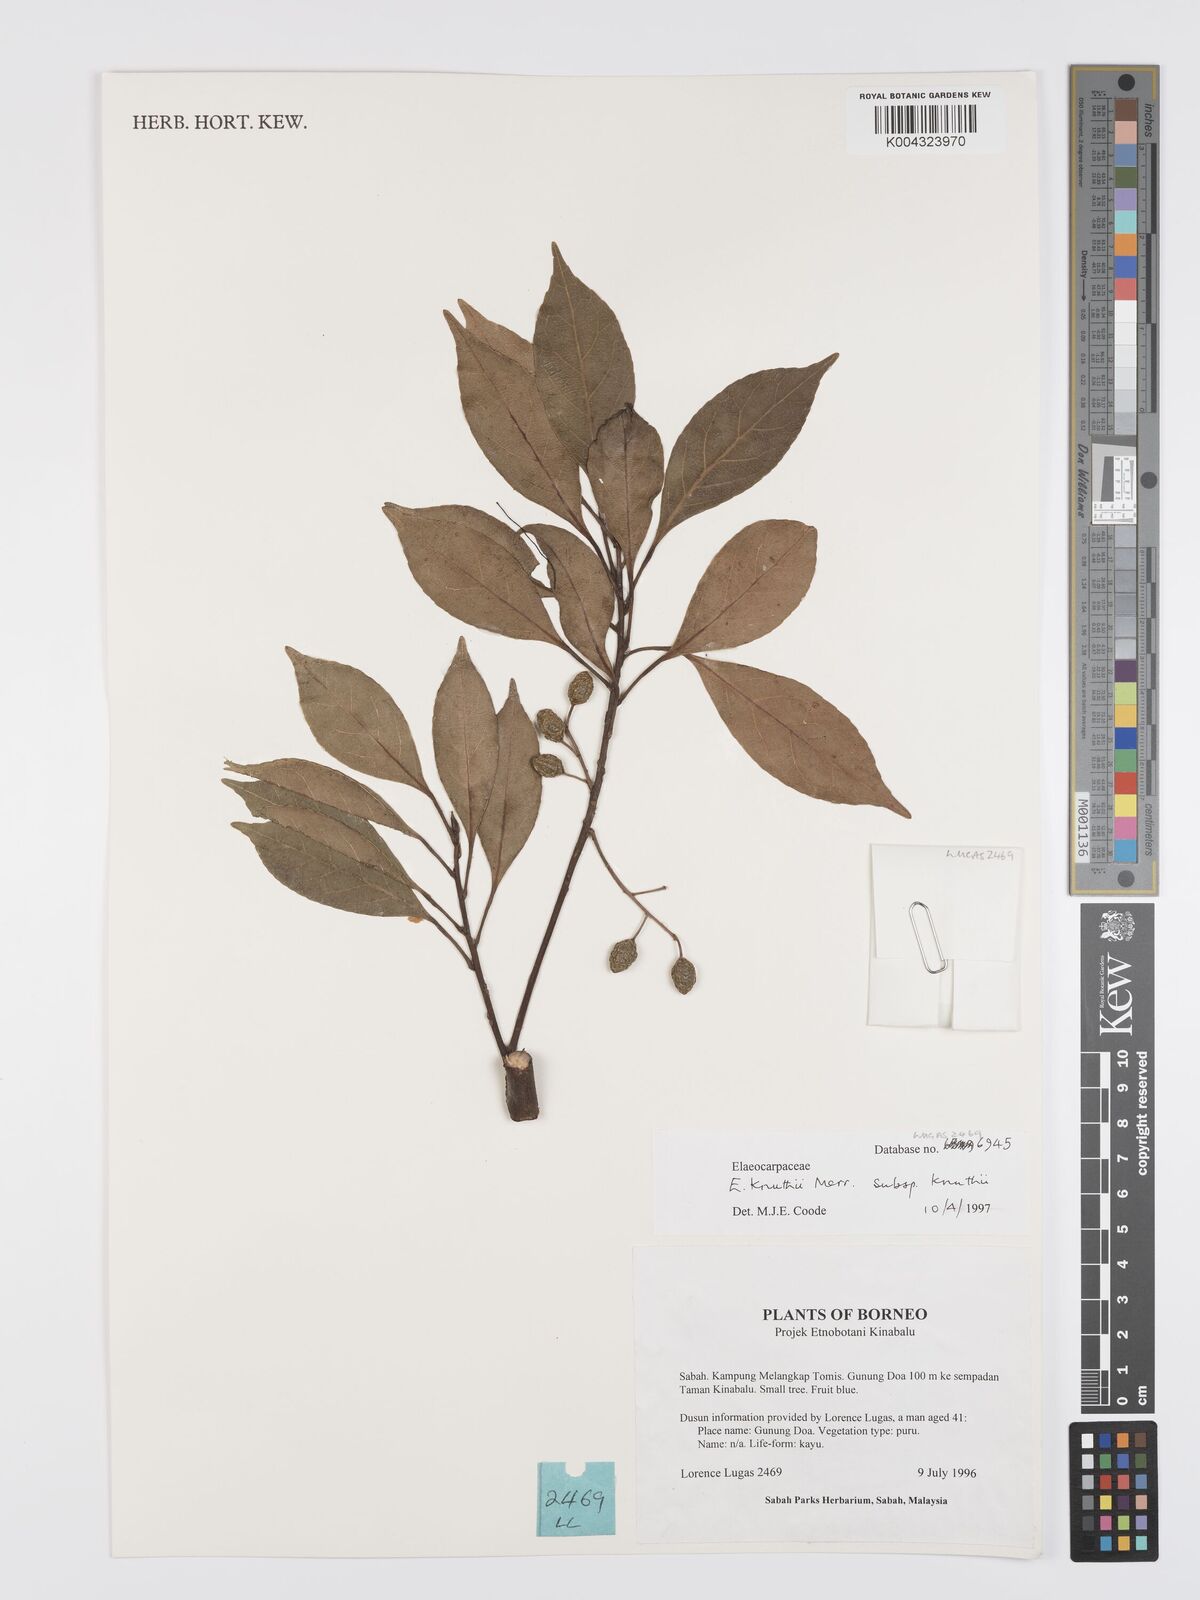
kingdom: Plantae
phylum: Tracheophyta
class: Magnoliopsida
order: Oxalidales
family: Elaeocarpaceae
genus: Elaeocarpus
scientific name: Elaeocarpus knuthii
